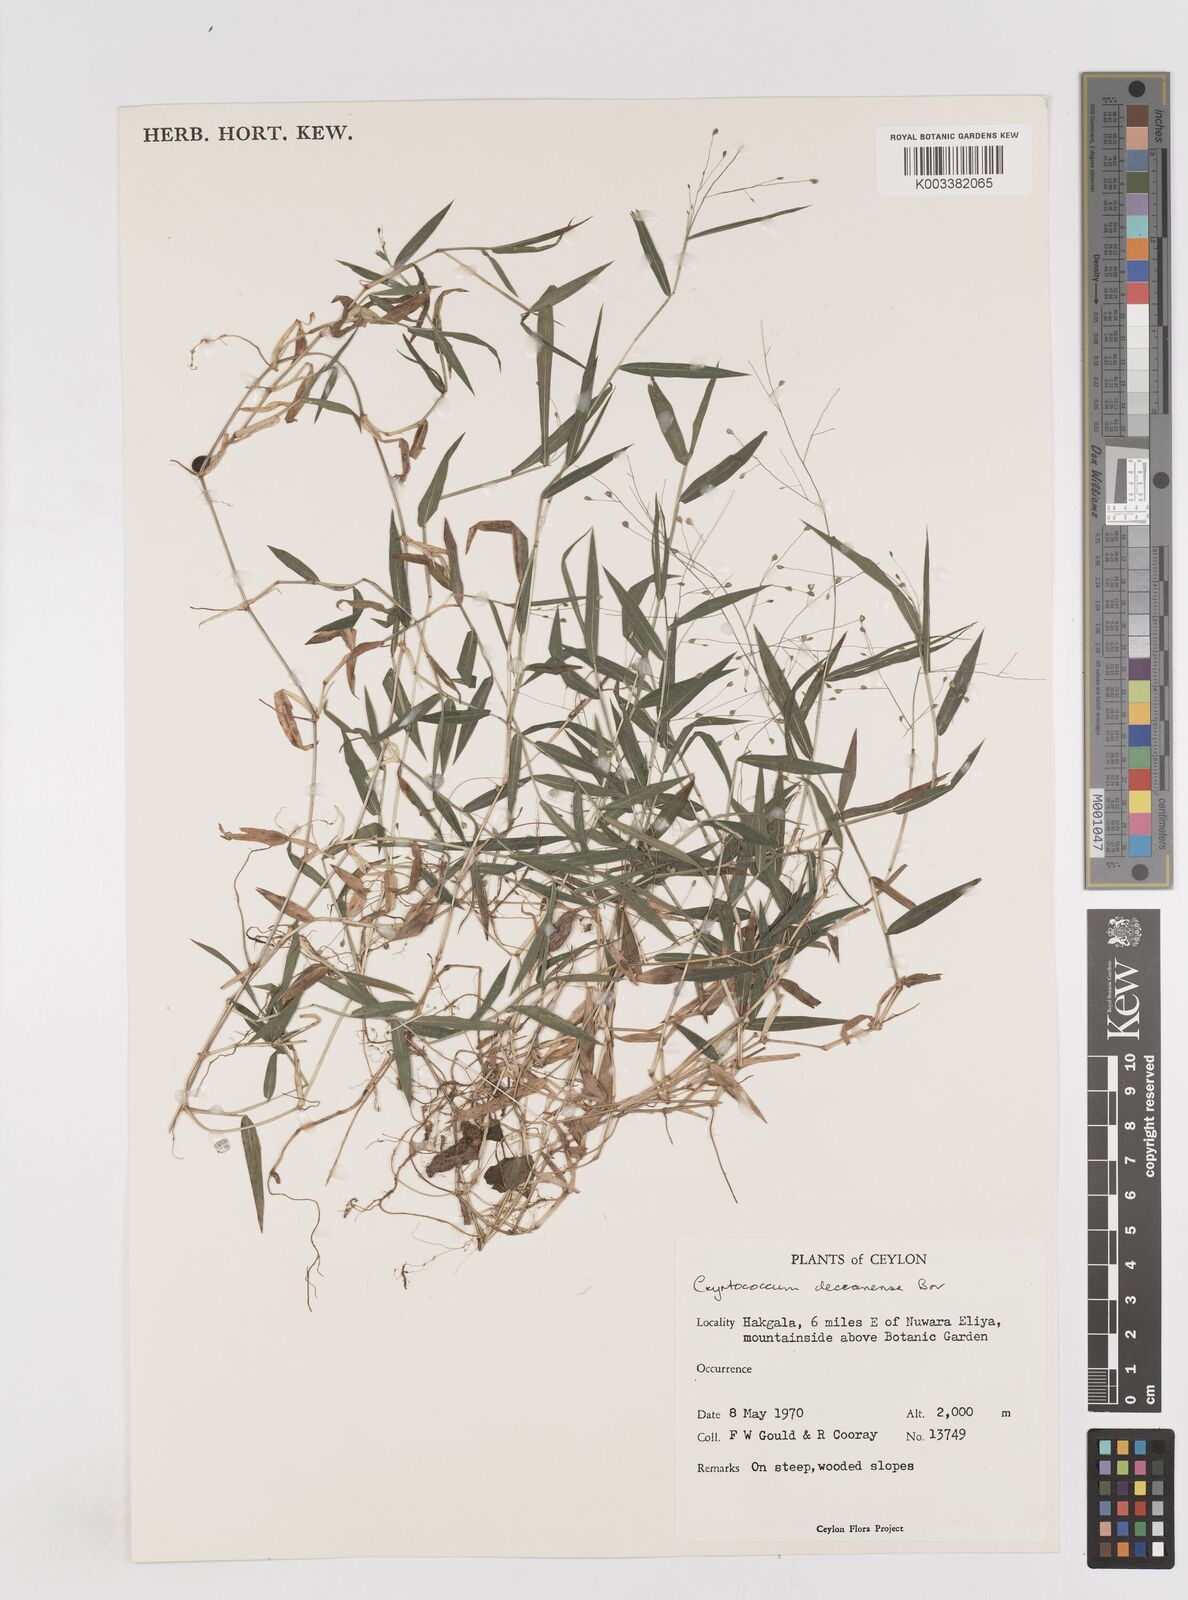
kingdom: Plantae
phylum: Tracheophyta
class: Liliopsida
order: Poales
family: Poaceae
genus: Cyrtococcum
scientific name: Cyrtococcum deccanense
